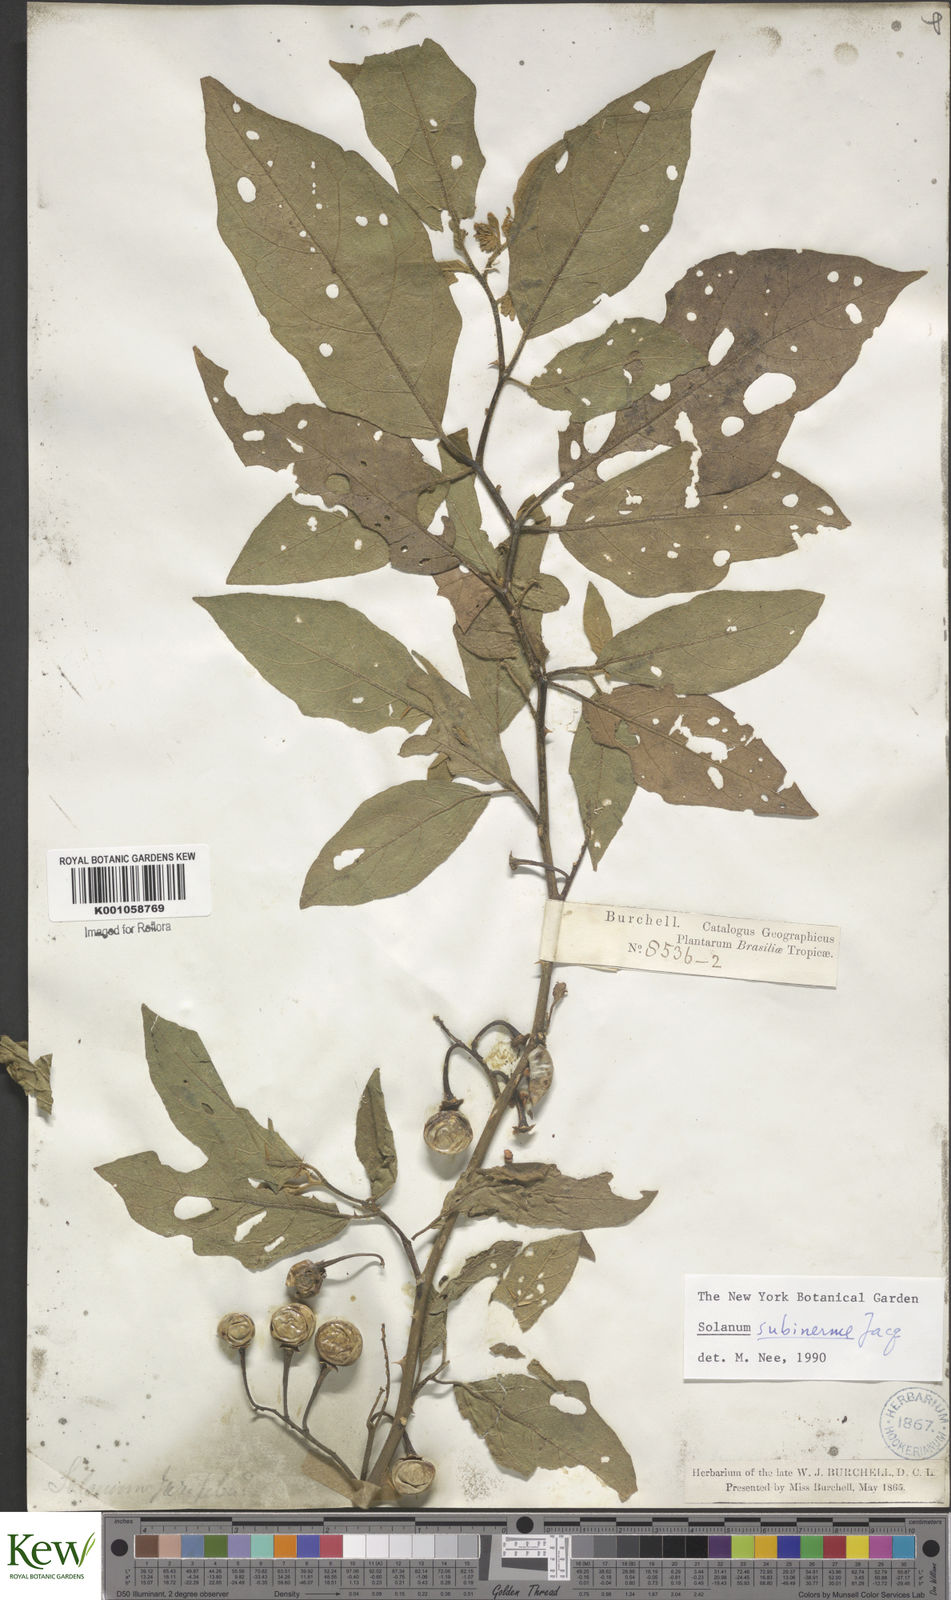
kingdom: Plantae
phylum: Tracheophyta
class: Magnoliopsida
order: Solanales
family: Solanaceae
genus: Solanum
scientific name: Solanum subinerme
